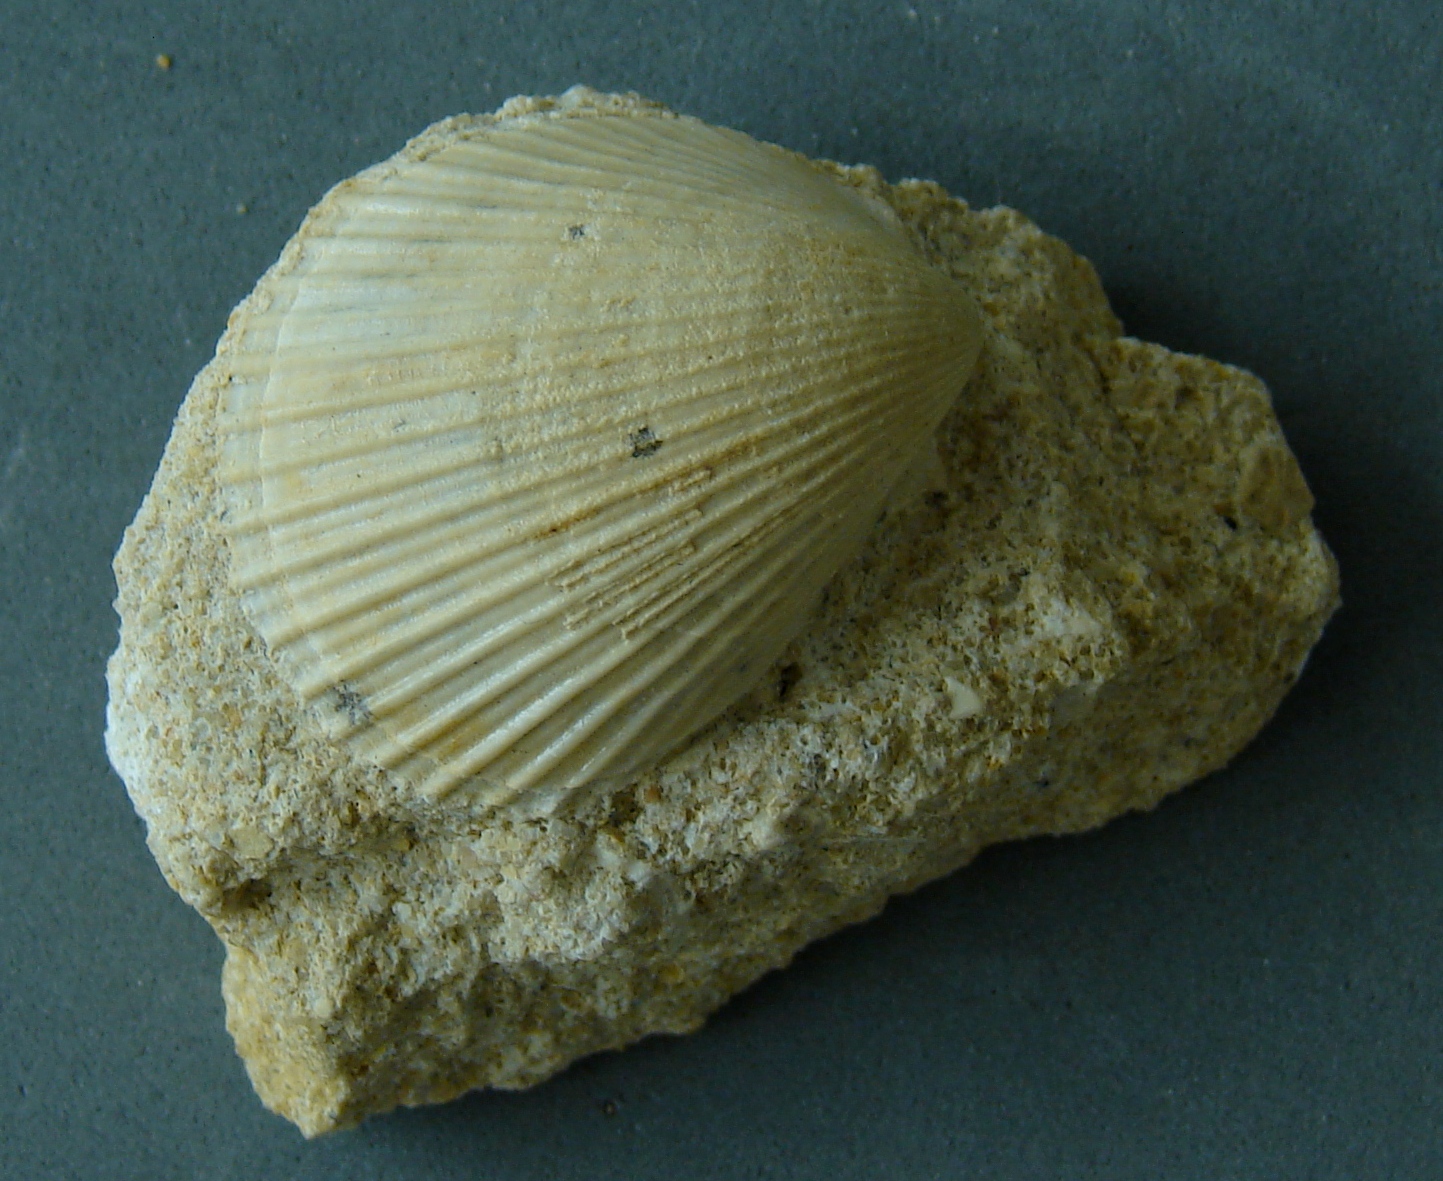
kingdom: Animalia
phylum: Mollusca
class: Bivalvia
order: Limida
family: Limidae
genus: Pseudolimea
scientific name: Pseudolimea Lima hettangiensis
